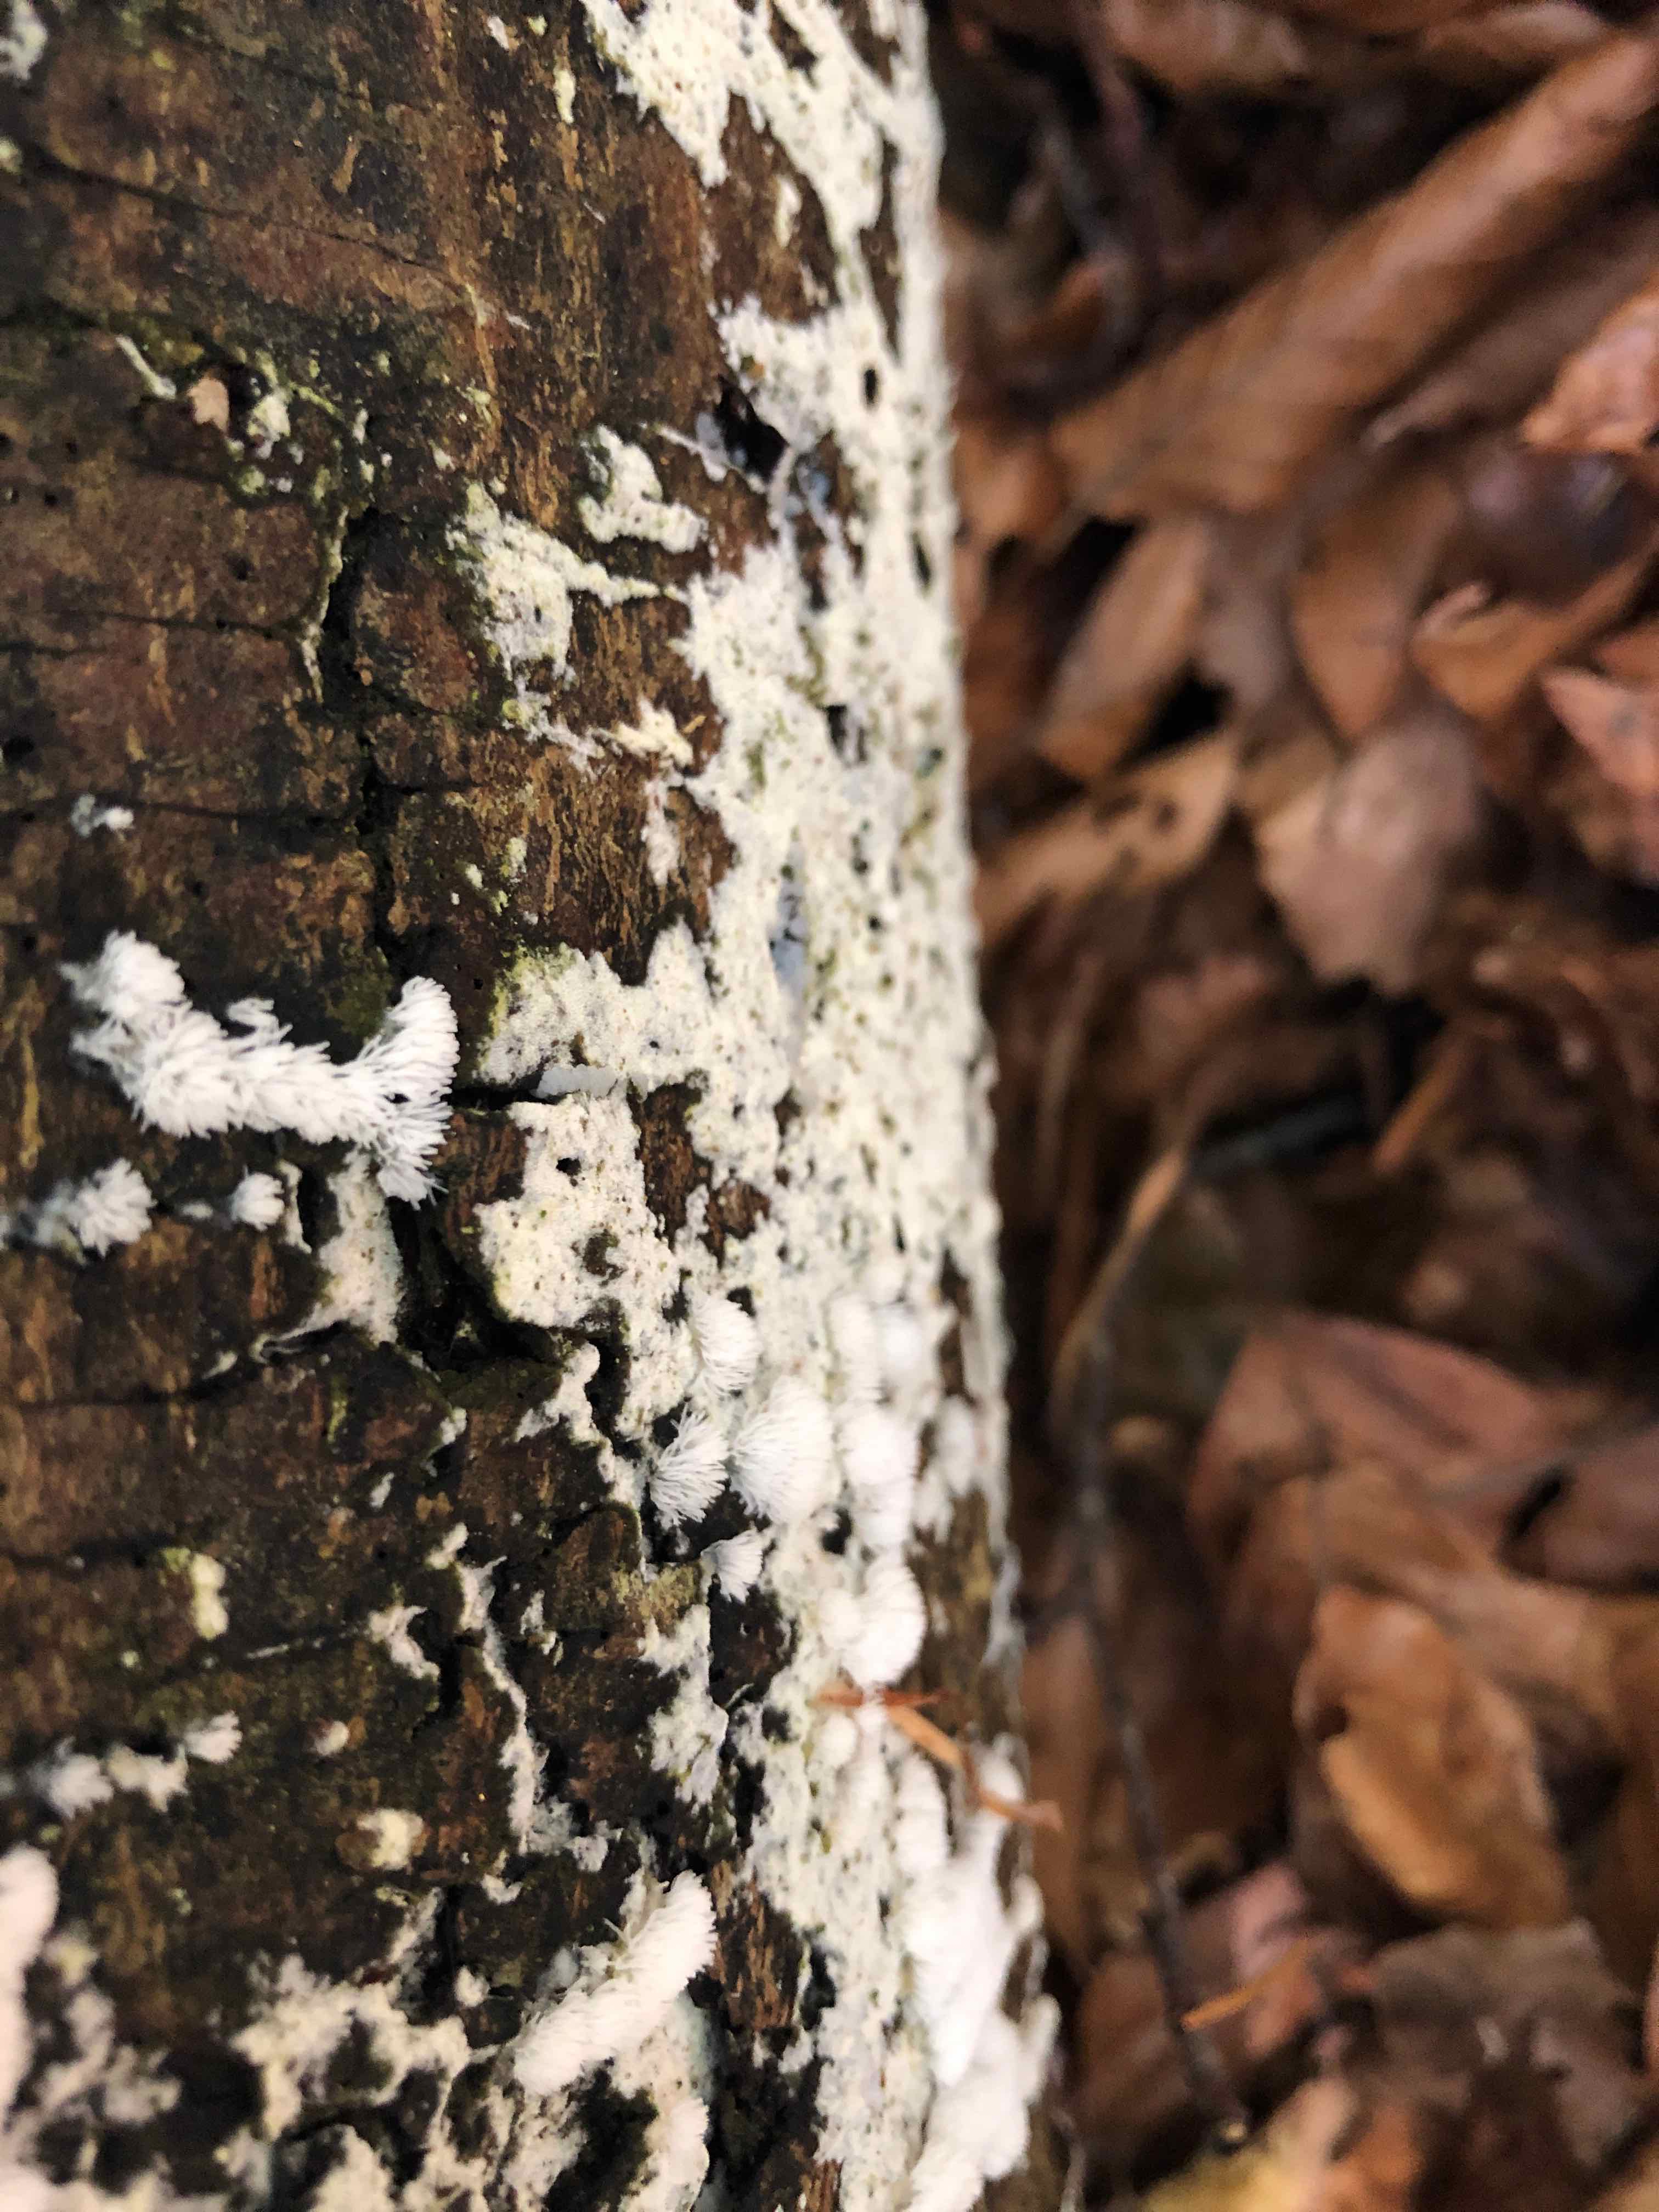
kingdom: Protozoa
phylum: Mycetozoa
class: Protosteliomycetes
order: Ceratiomyxales
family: Ceratiomyxaceae
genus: Ceratiomyxa
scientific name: Ceratiomyxa fruticulosa
